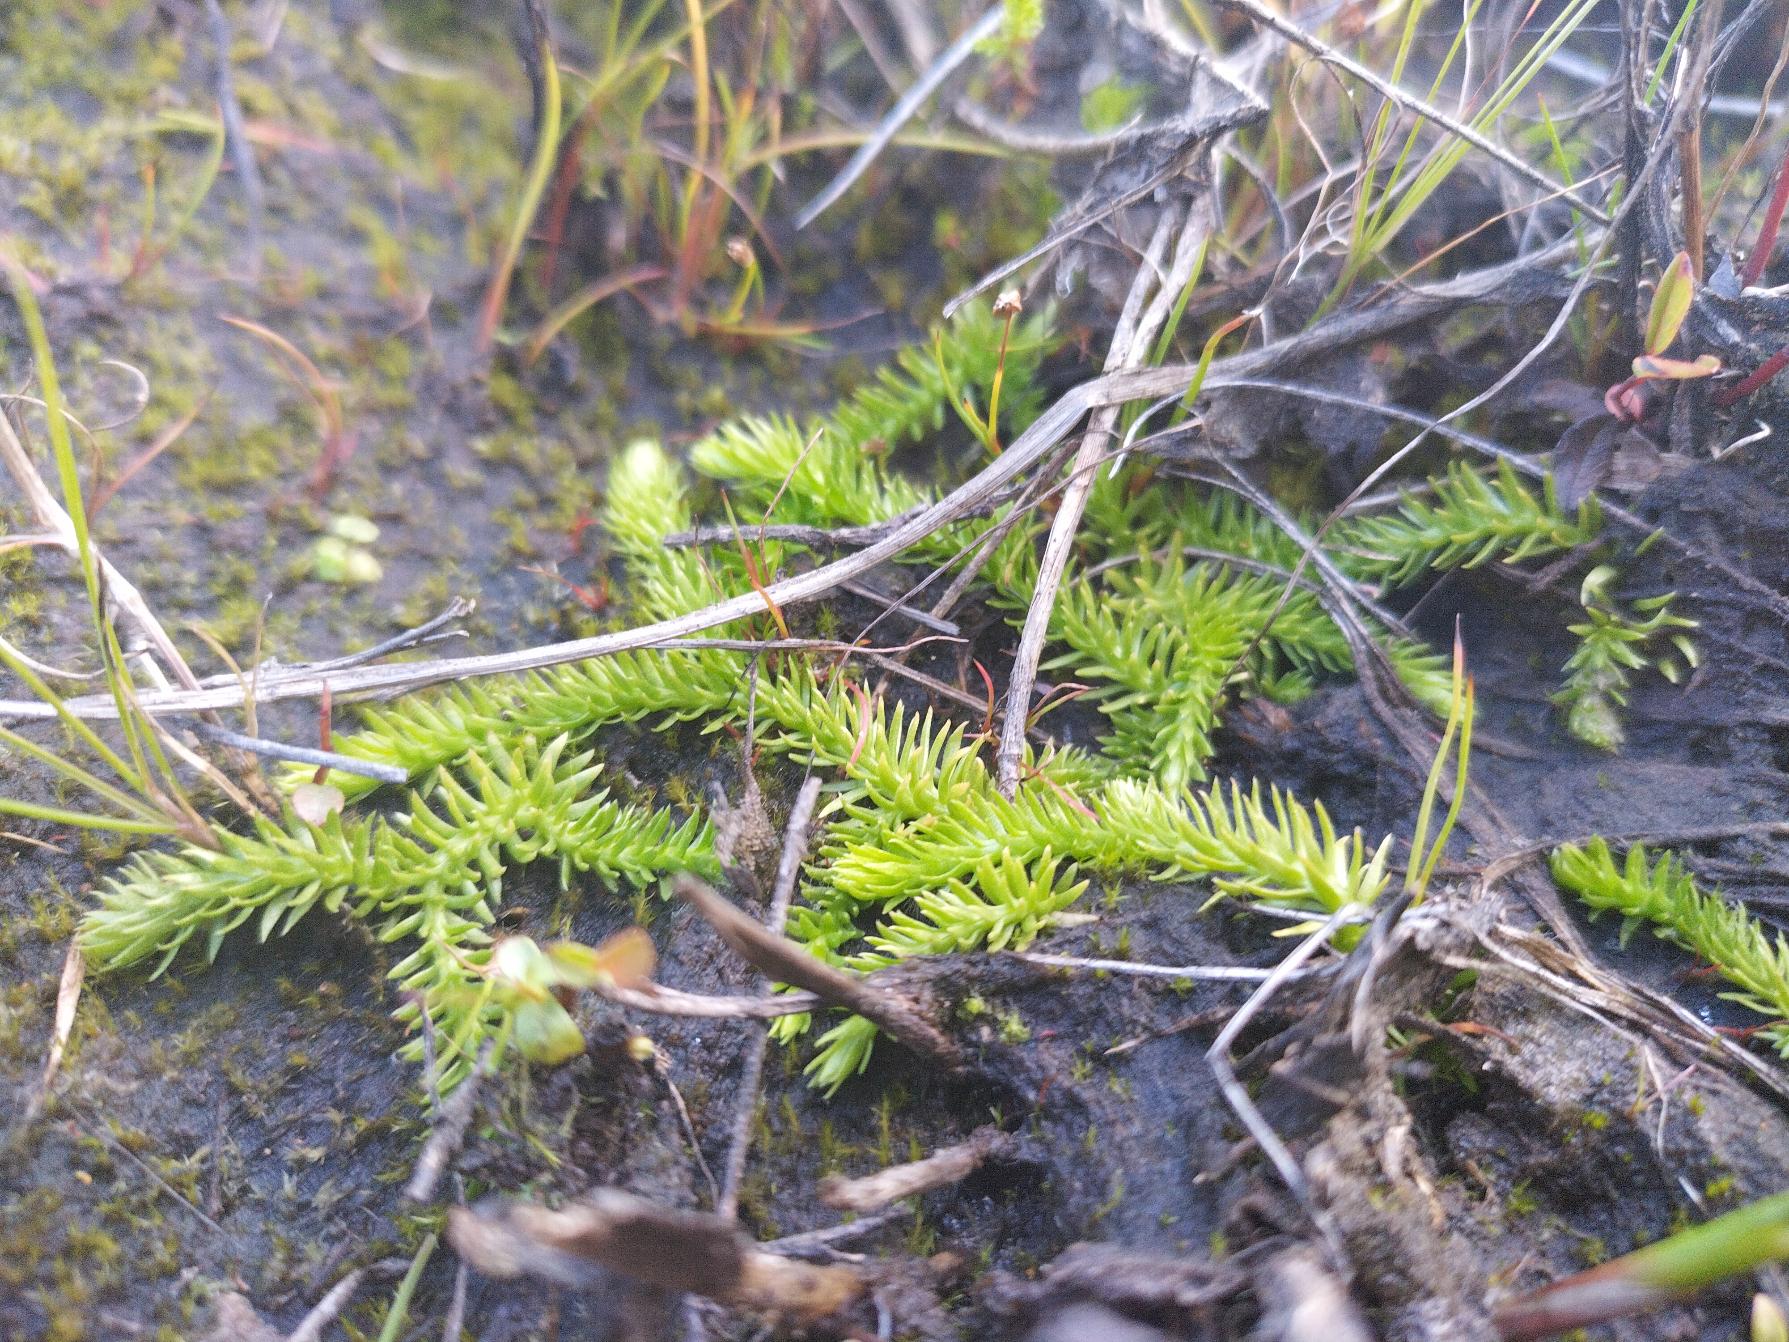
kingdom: Plantae
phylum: Tracheophyta
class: Lycopodiopsida
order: Lycopodiales
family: Lycopodiaceae
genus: Lycopodiella
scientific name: Lycopodiella inundata
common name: Liden ulvefod
